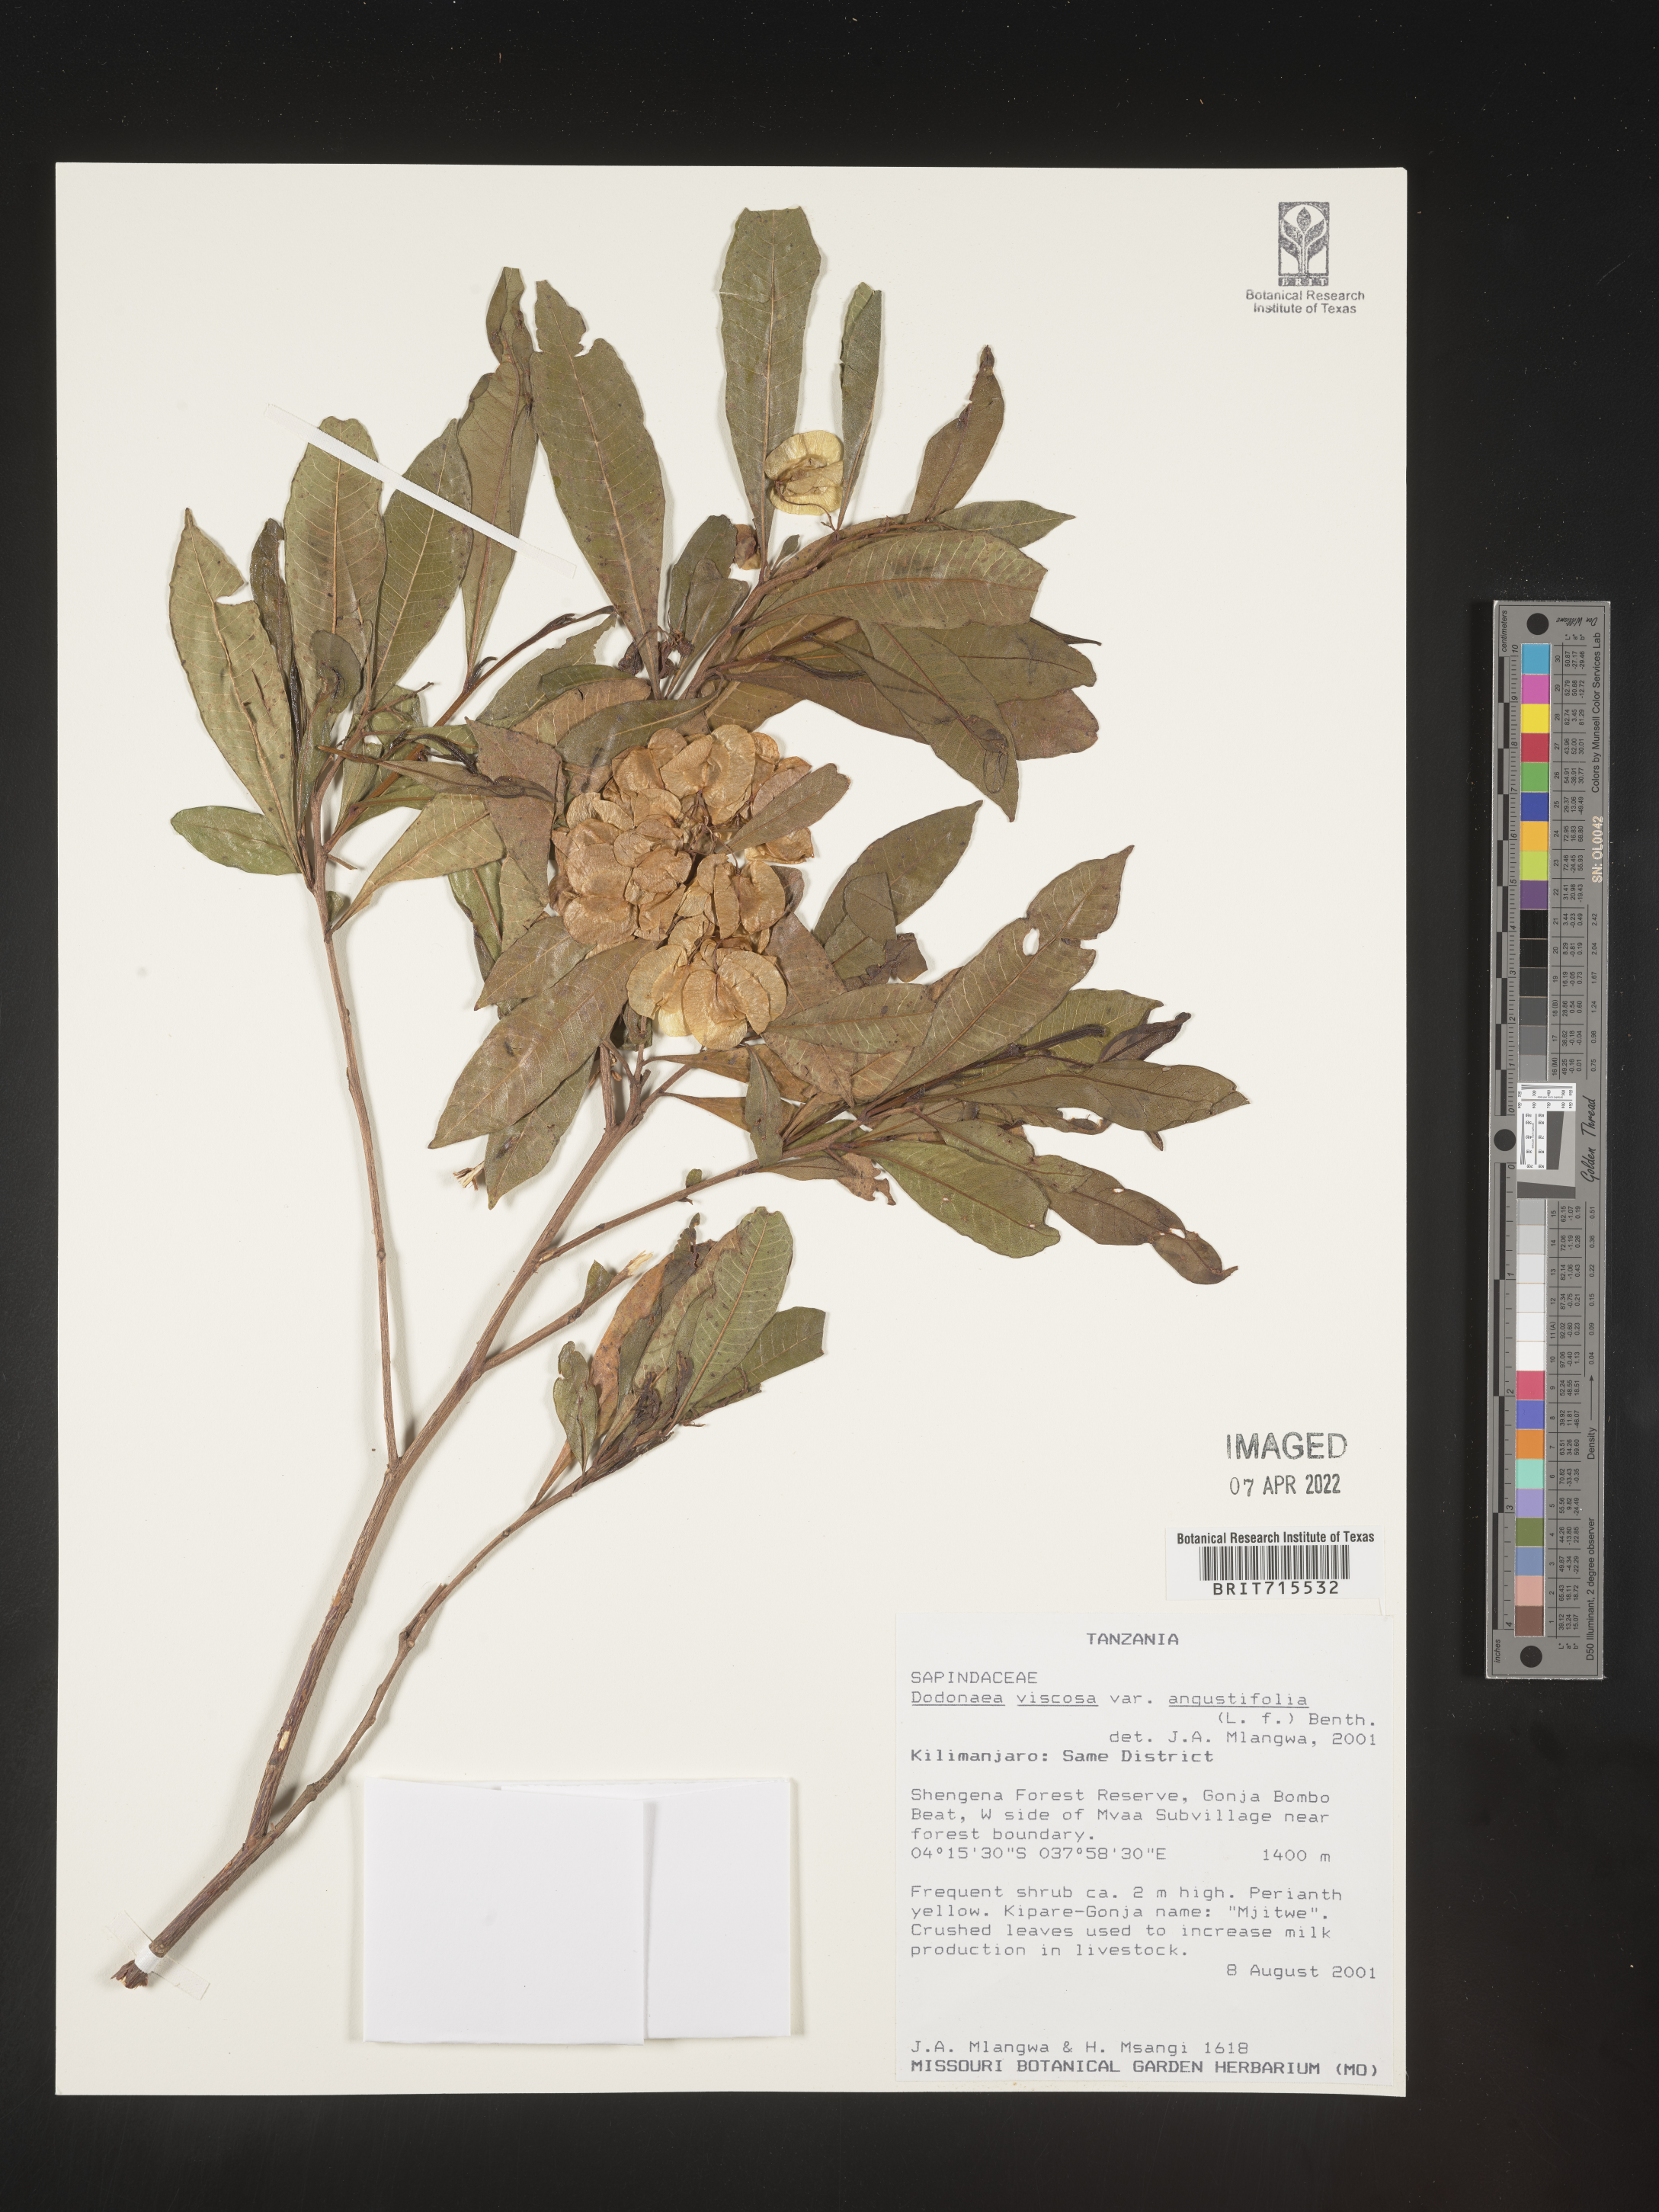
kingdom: Plantae
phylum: Tracheophyta
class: Magnoliopsida
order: Sapindales
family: Sapindaceae
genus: Dodonaea
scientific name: Dodonaea viscosa
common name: Hopbush
